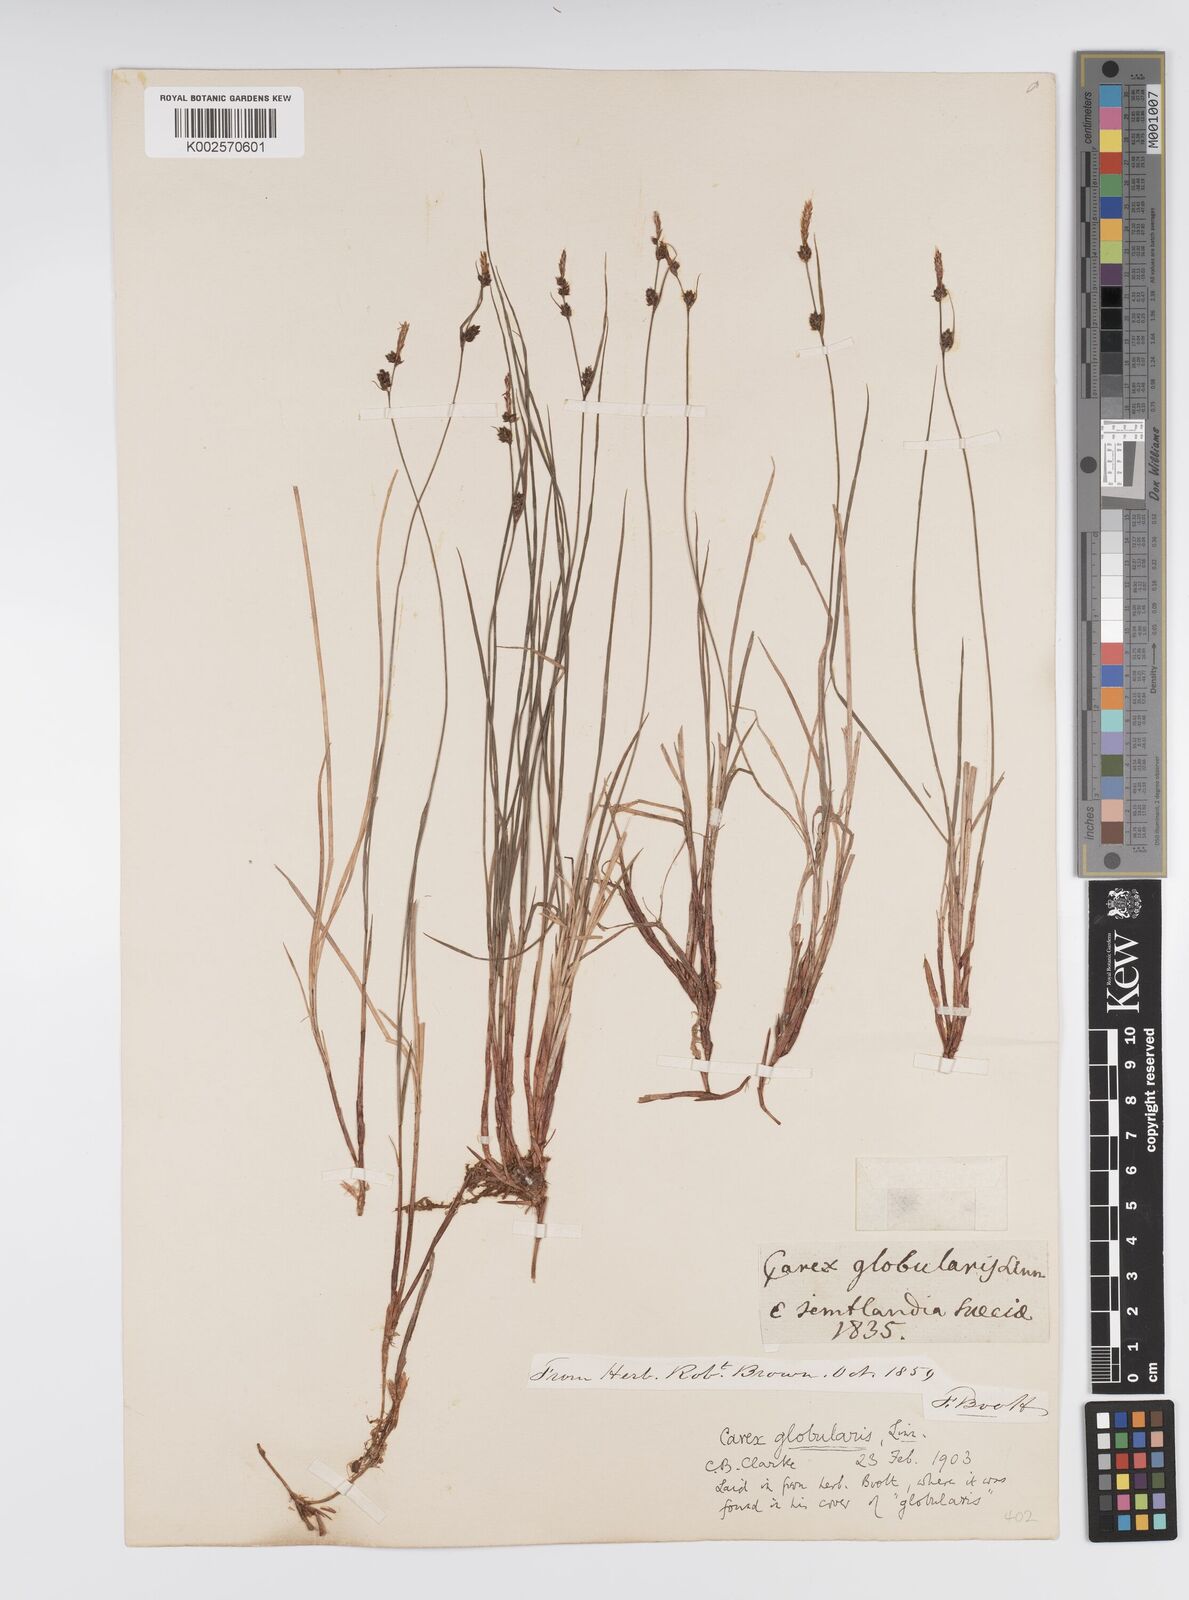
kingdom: Plantae
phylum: Tracheophyta
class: Liliopsida
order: Poales
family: Cyperaceae
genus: Carex
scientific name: Carex globularis
